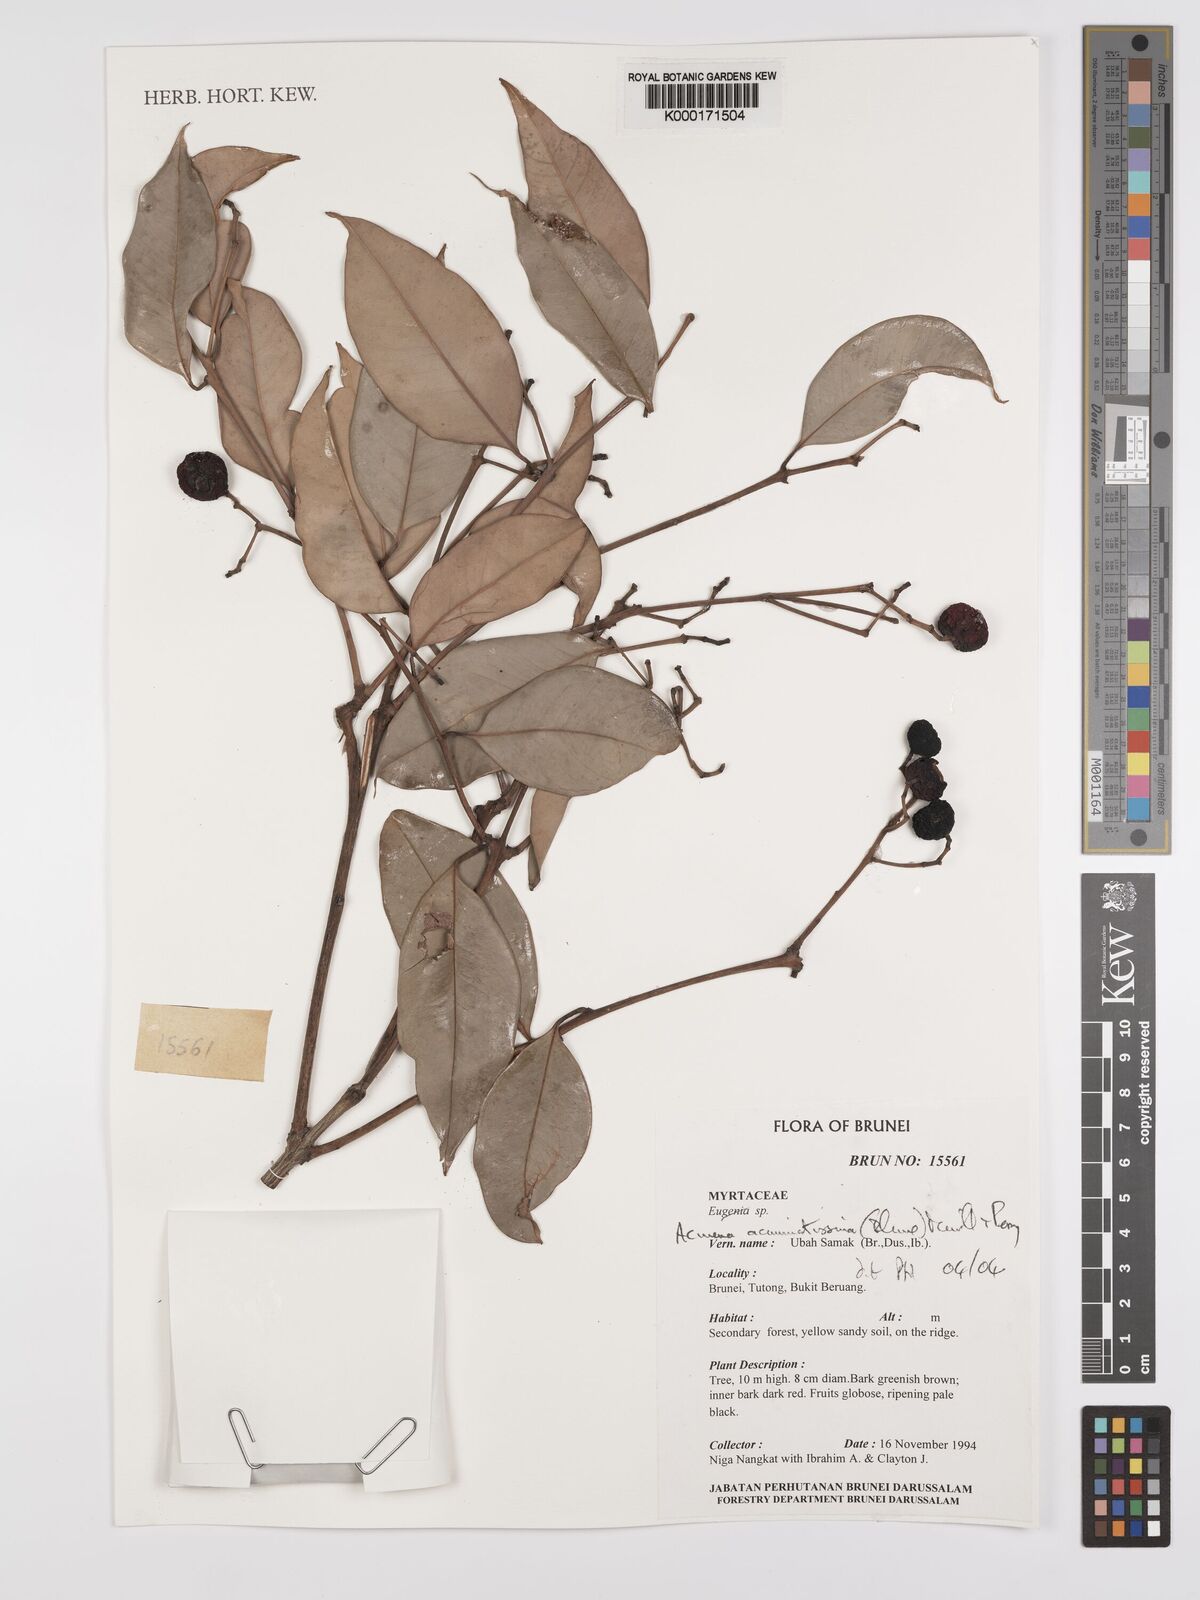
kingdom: Plantae
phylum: Tracheophyta
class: Magnoliopsida
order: Myrtales
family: Myrtaceae
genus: Syzygium
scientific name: Syzygium acuminatissimum
